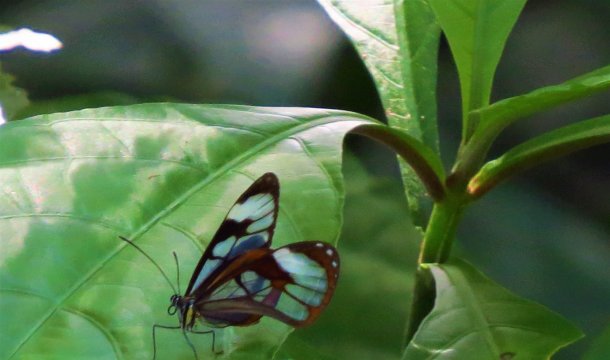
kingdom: Animalia
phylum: Arthropoda
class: Insecta
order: Lepidoptera
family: Nymphalidae
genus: Ithomia
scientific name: Ithomia diasia
